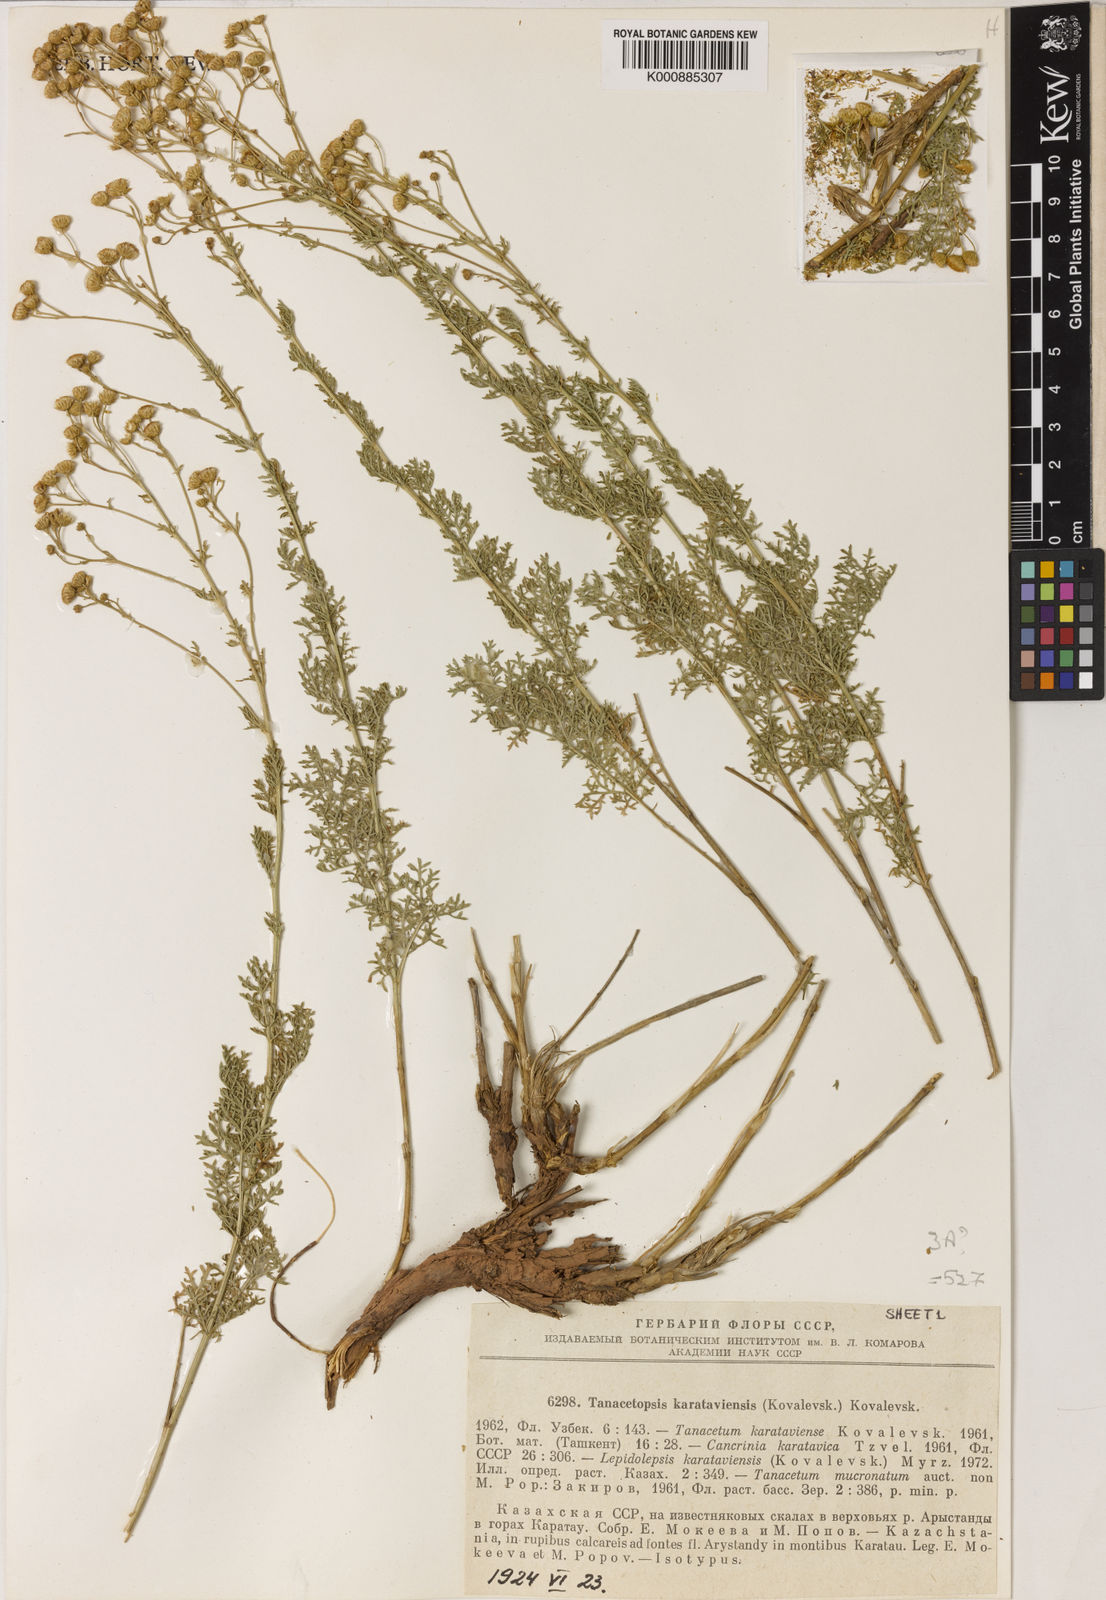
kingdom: Plantae
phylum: Tracheophyta
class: Magnoliopsida
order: Asterales
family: Asteraceae
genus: Tanacetopsis
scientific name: Tanacetopsis
